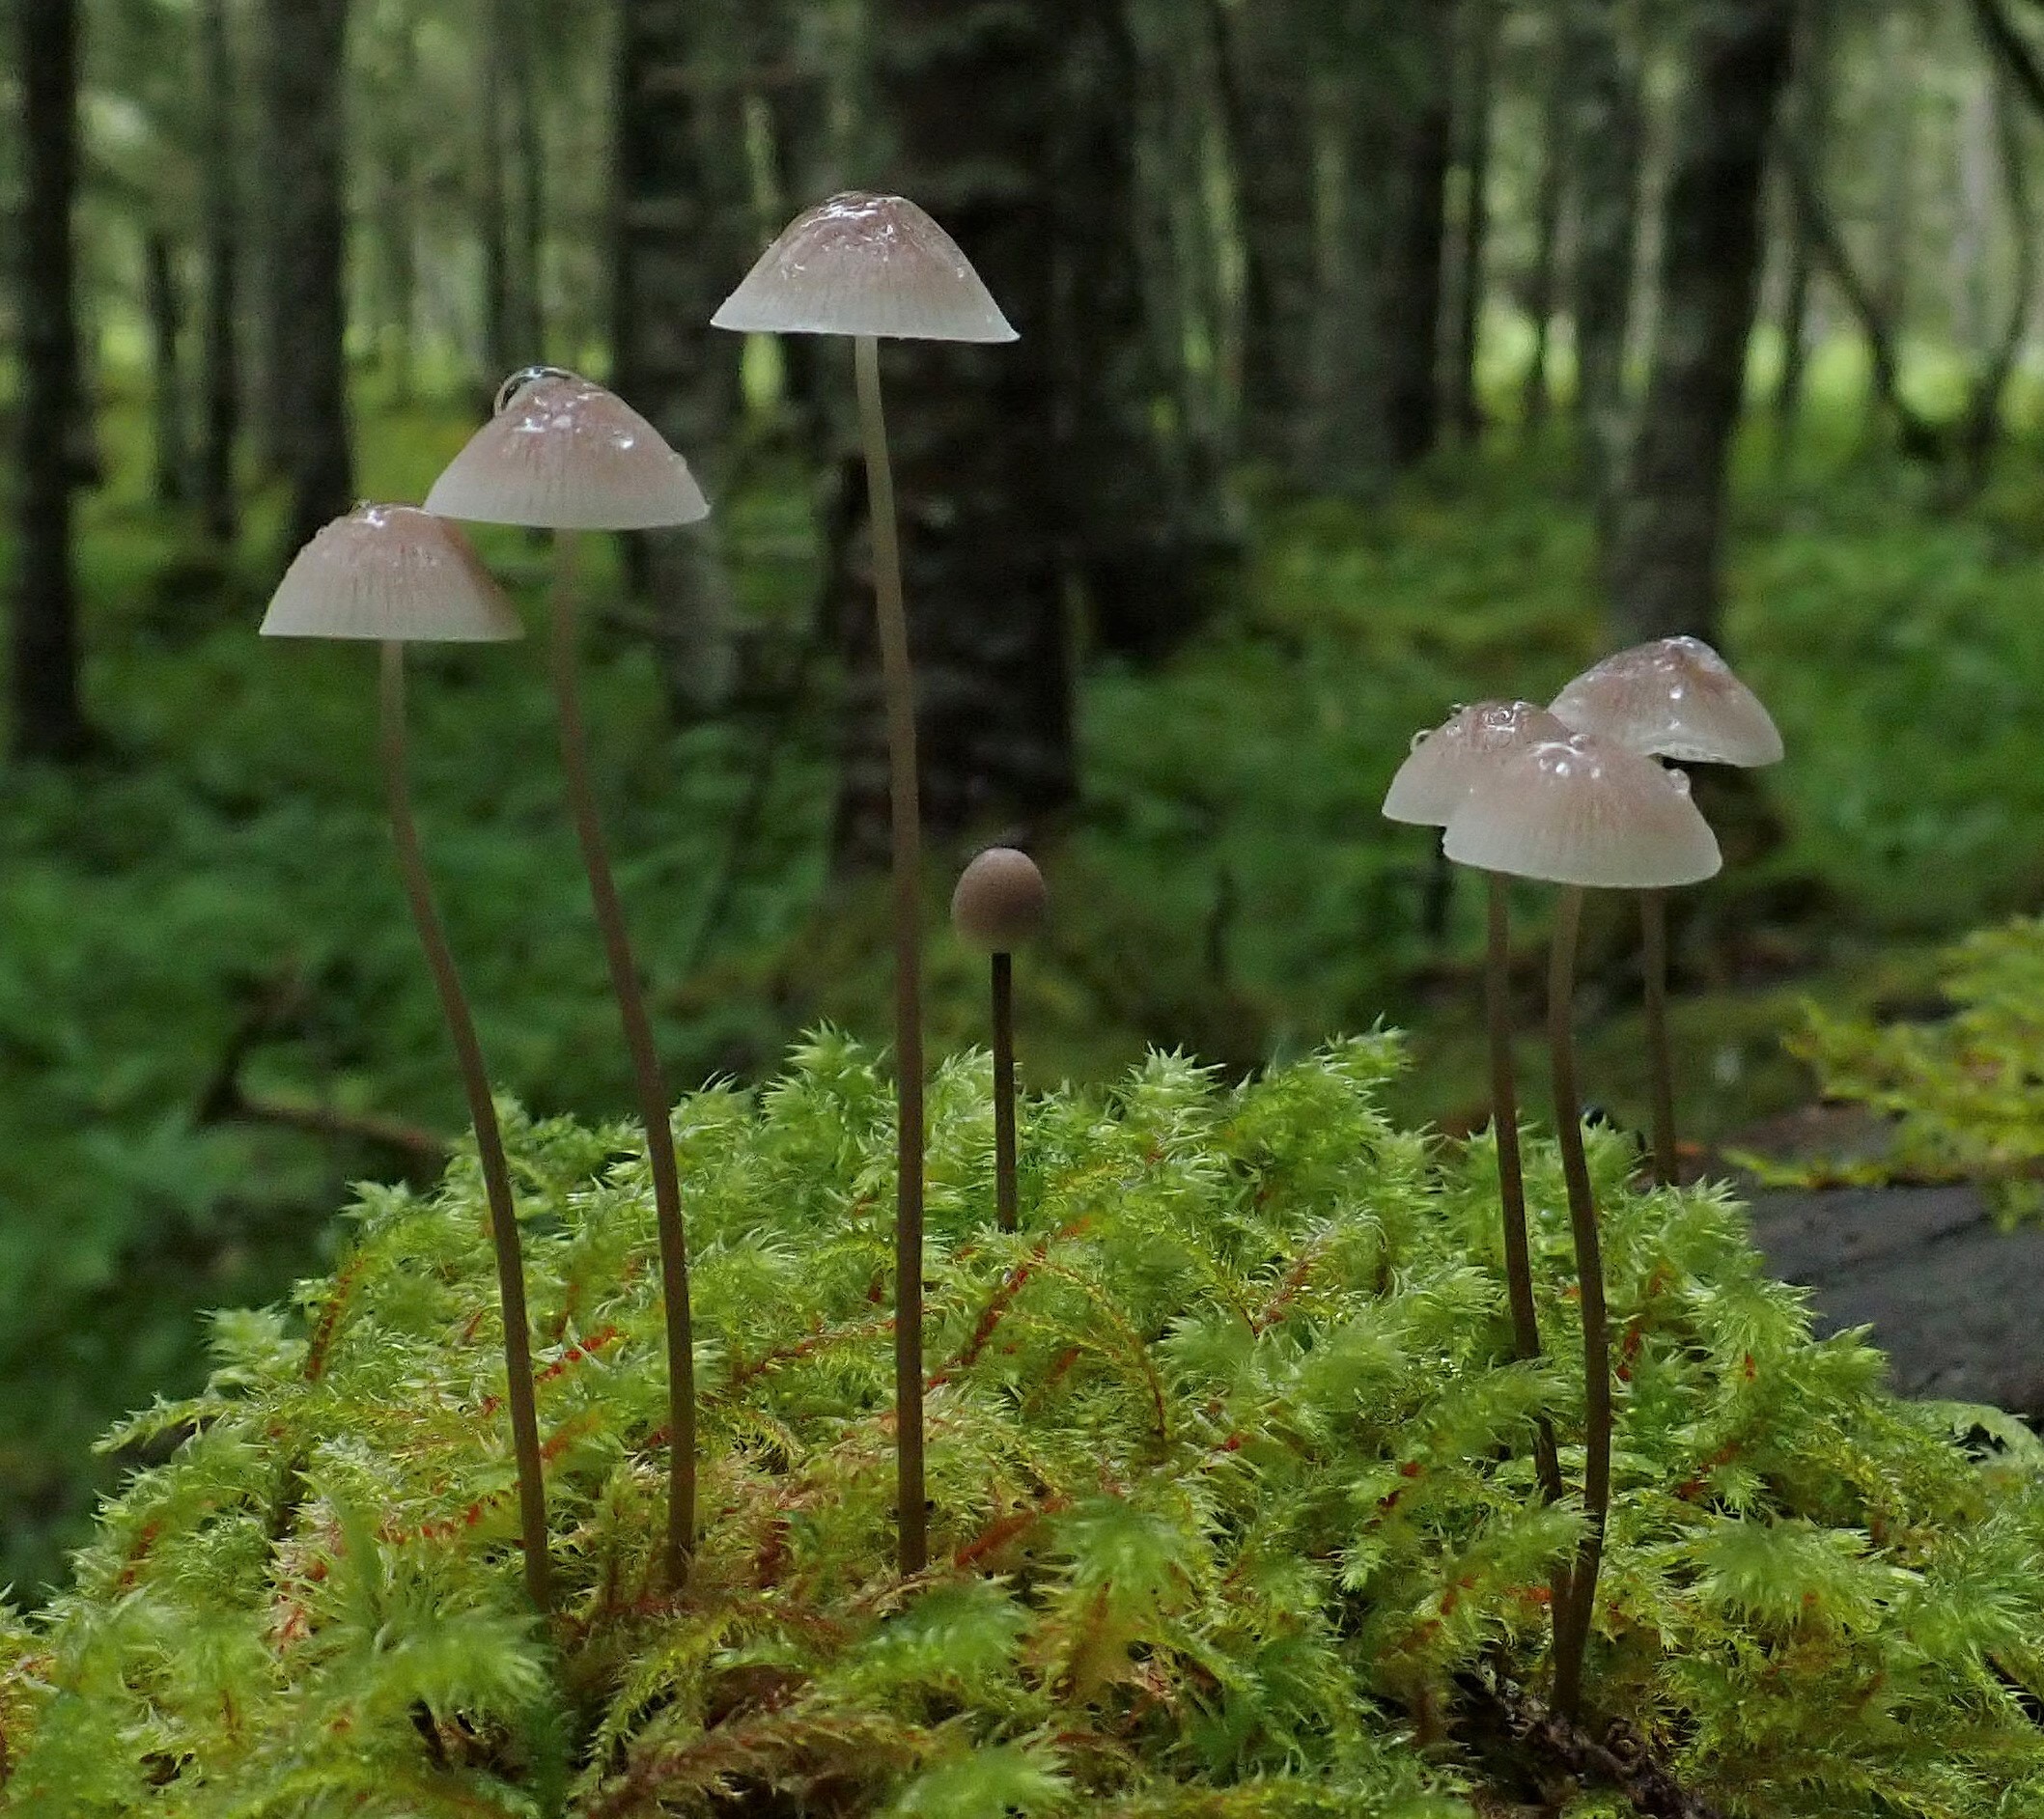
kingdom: Fungi
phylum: Basidiomycota
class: Agaricomycetes
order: Agaricales
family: Mycenaceae
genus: Mycena
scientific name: Mycena filopes
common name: Iodine bonnet
